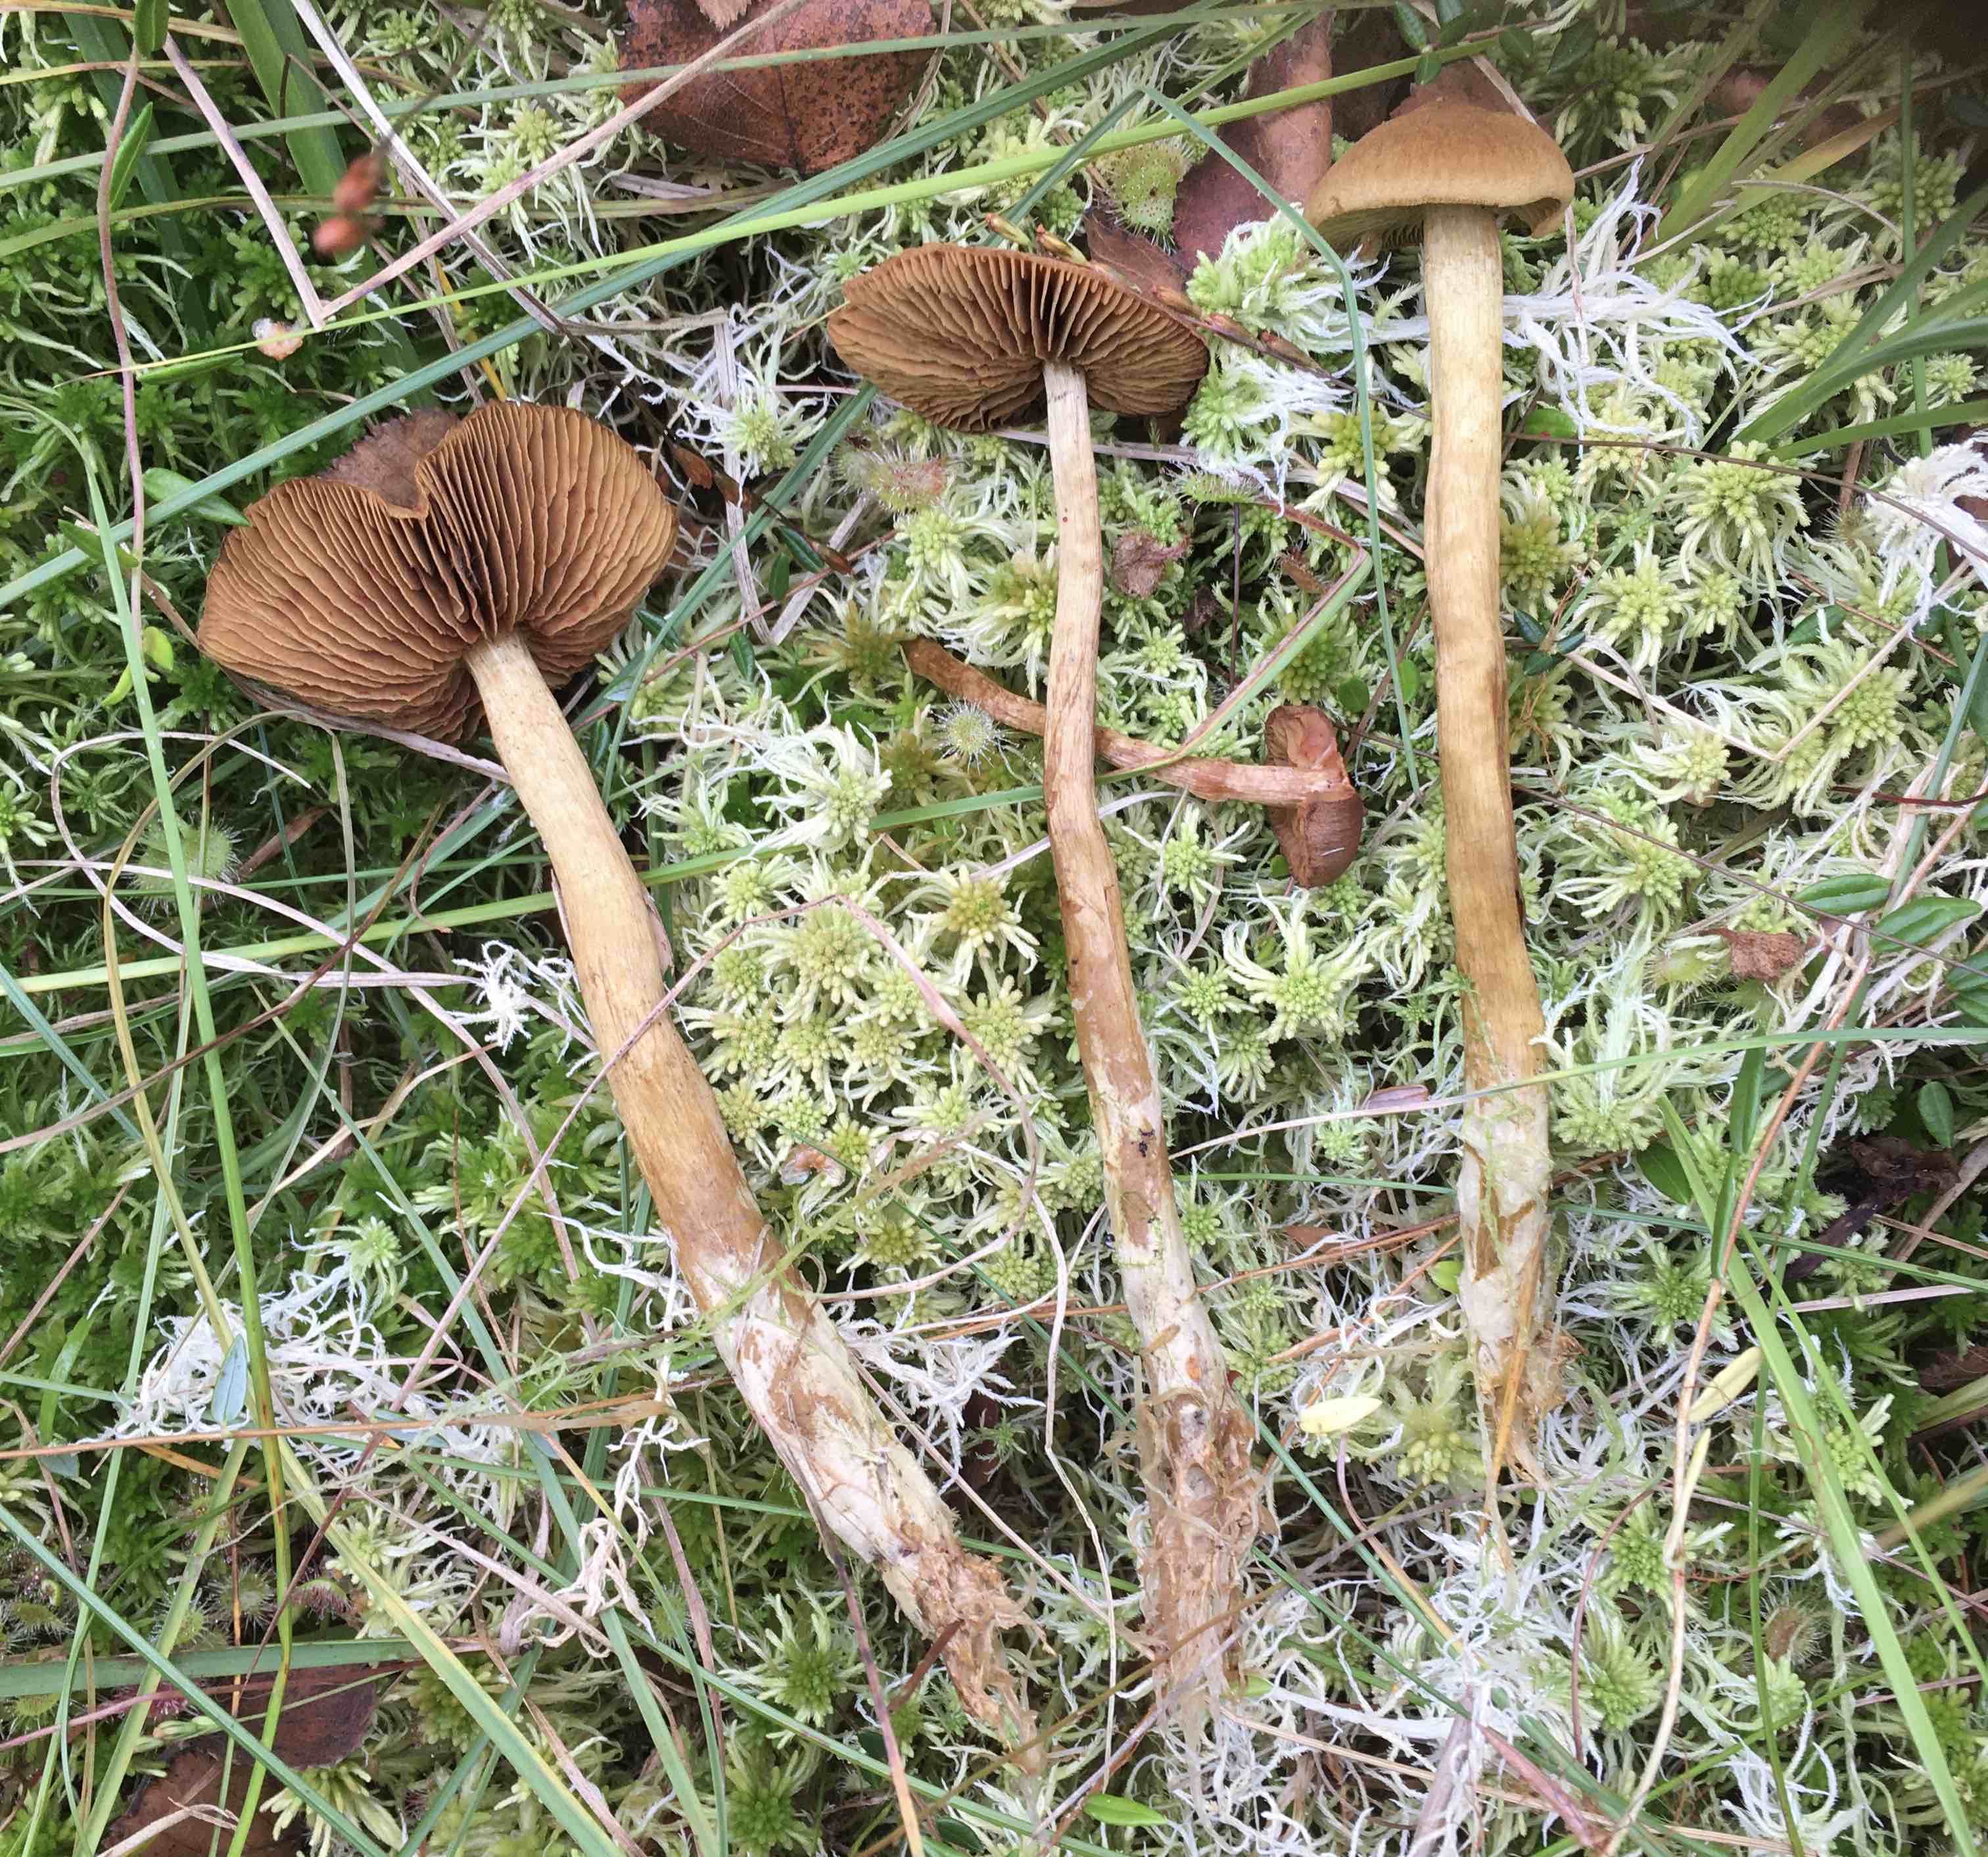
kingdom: Fungi
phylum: Basidiomycota
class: Agaricomycetes
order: Agaricales
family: Cortinariaceae
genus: Cortinarius
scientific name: Cortinarius subfusipes
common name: højmose-slørhat
